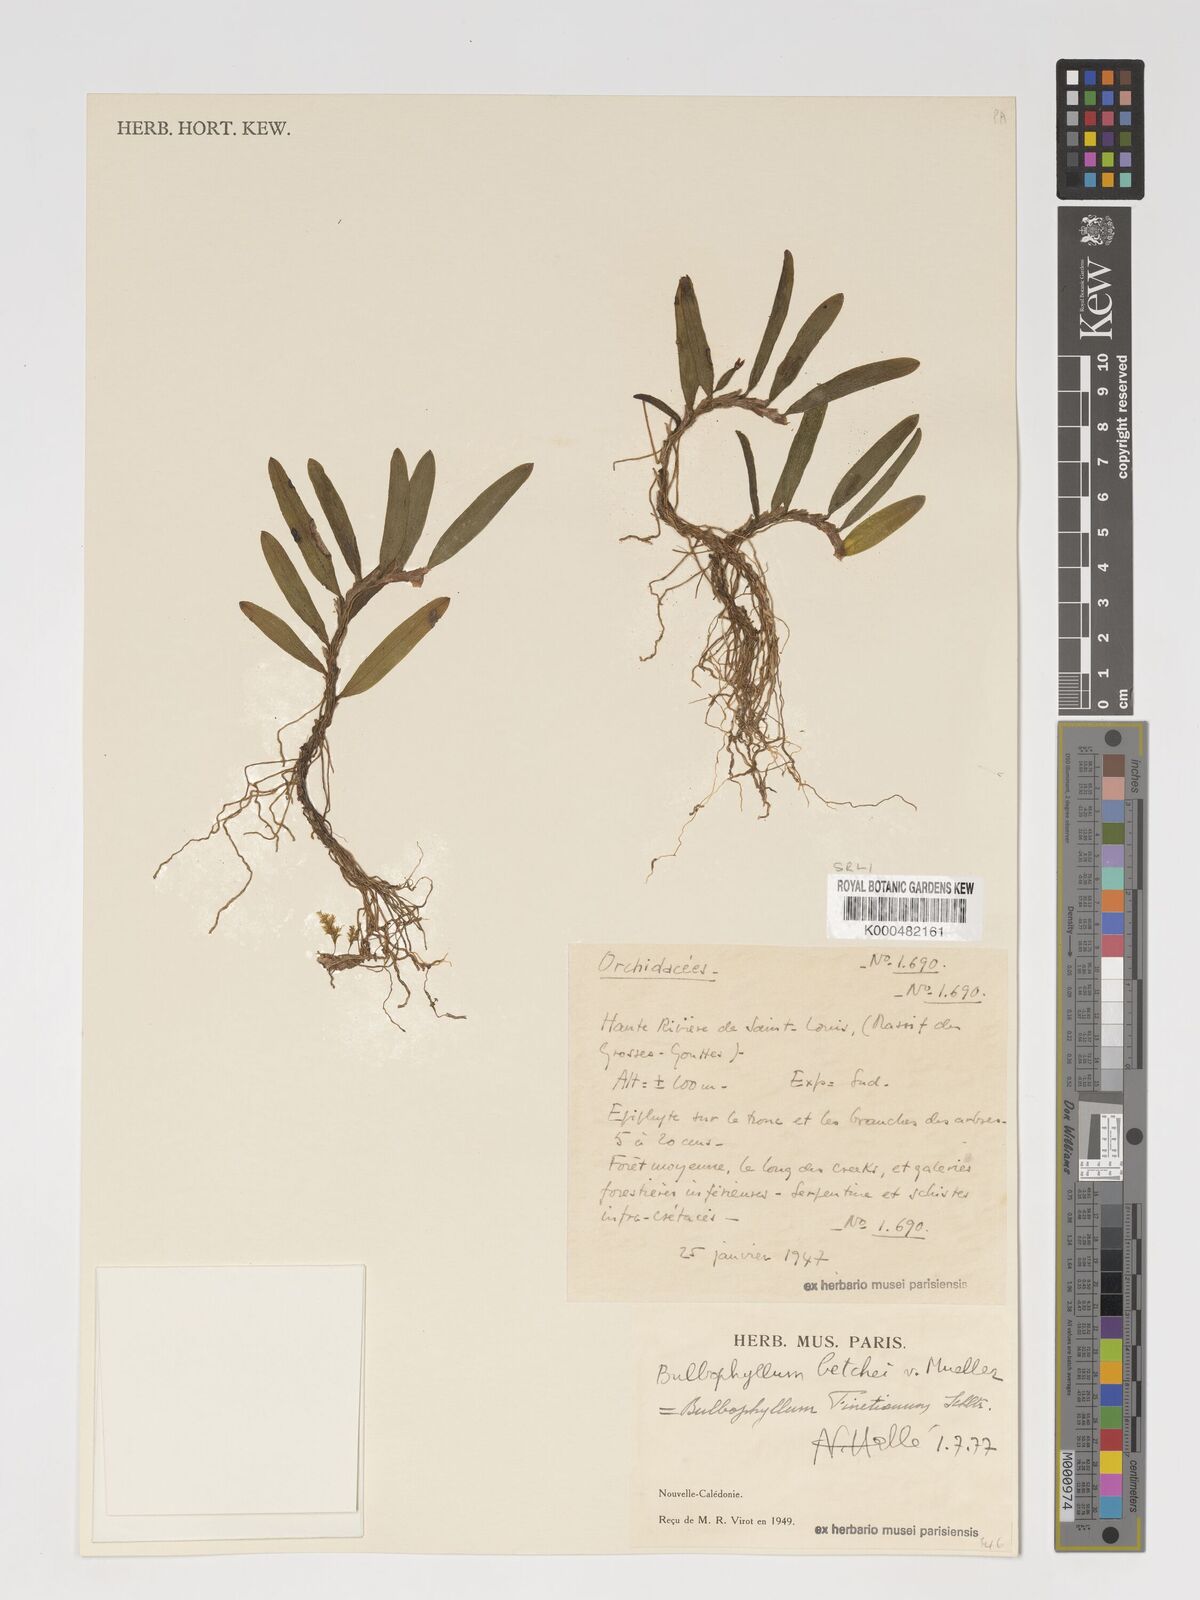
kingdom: Plantae
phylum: Tracheophyta
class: Liliopsida
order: Asparagales
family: Orchidaceae
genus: Bulbophyllum
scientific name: Bulbophyllum betchei
